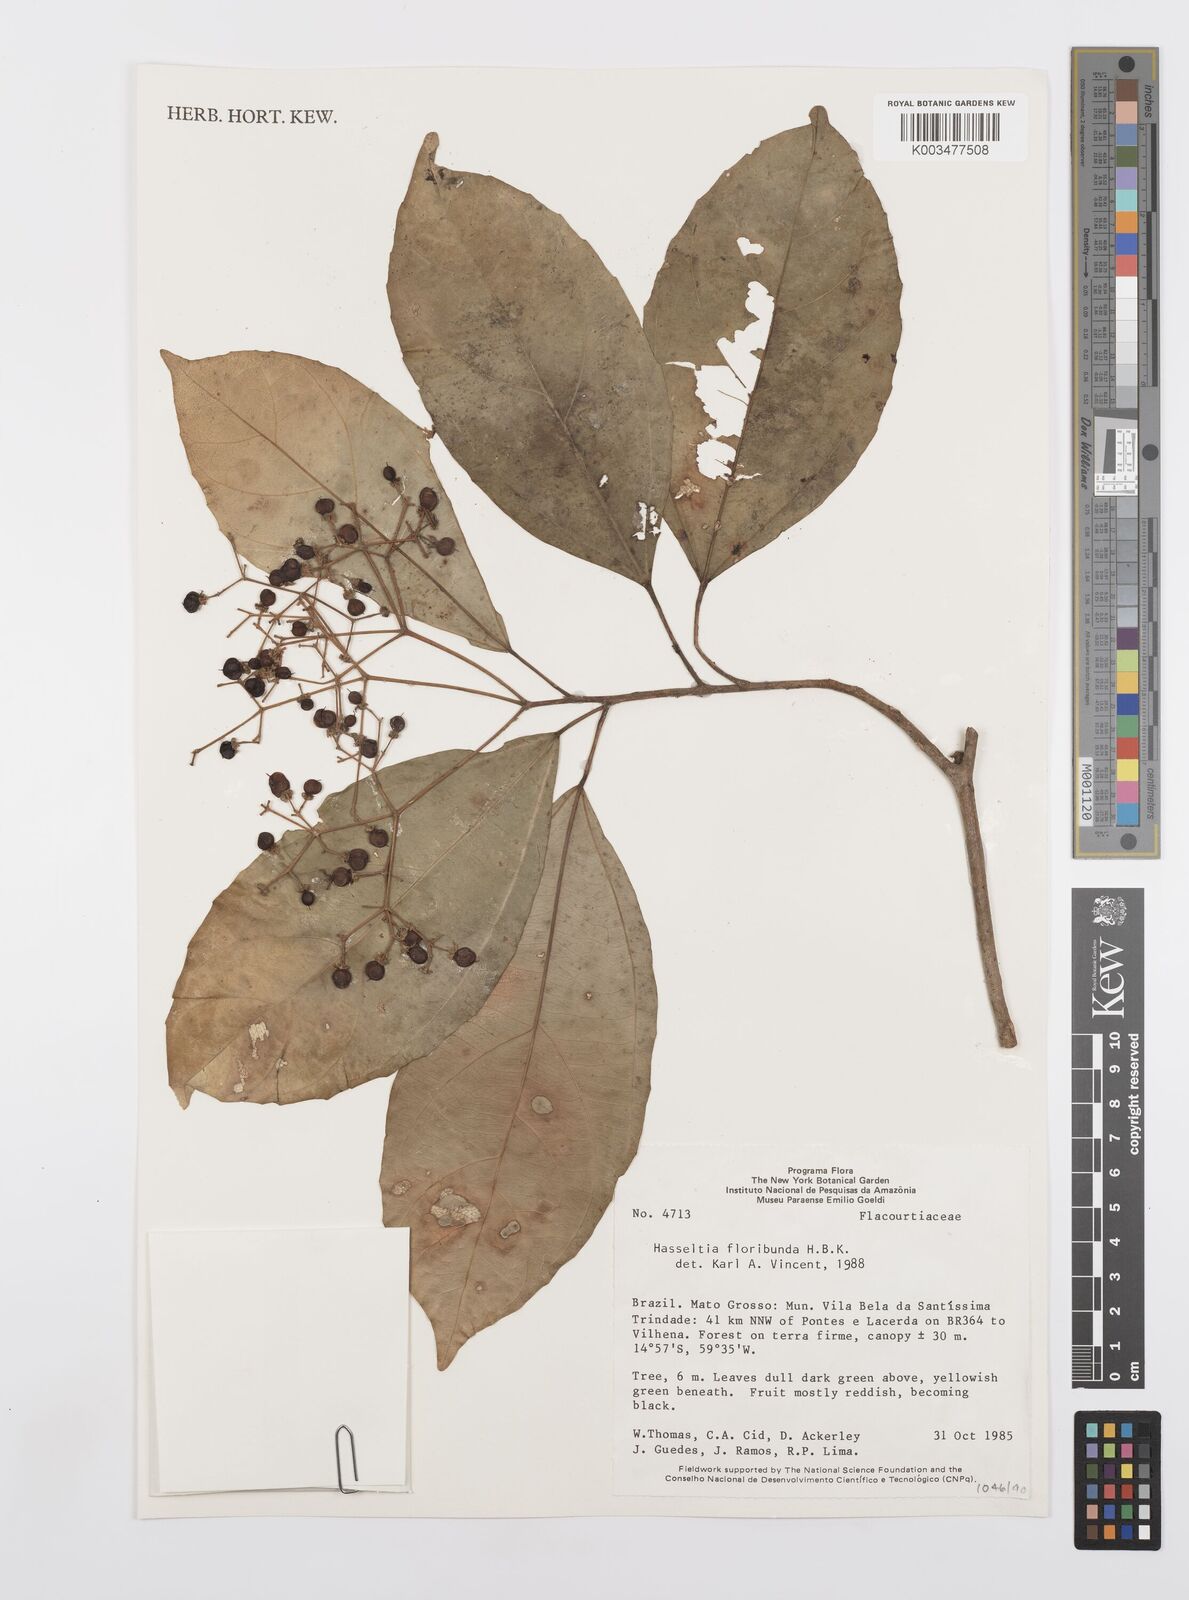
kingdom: Plantae
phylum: Tracheophyta
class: Magnoliopsida
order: Malpighiales
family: Salicaceae
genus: Hasseltia
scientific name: Hasseltia floribunda
